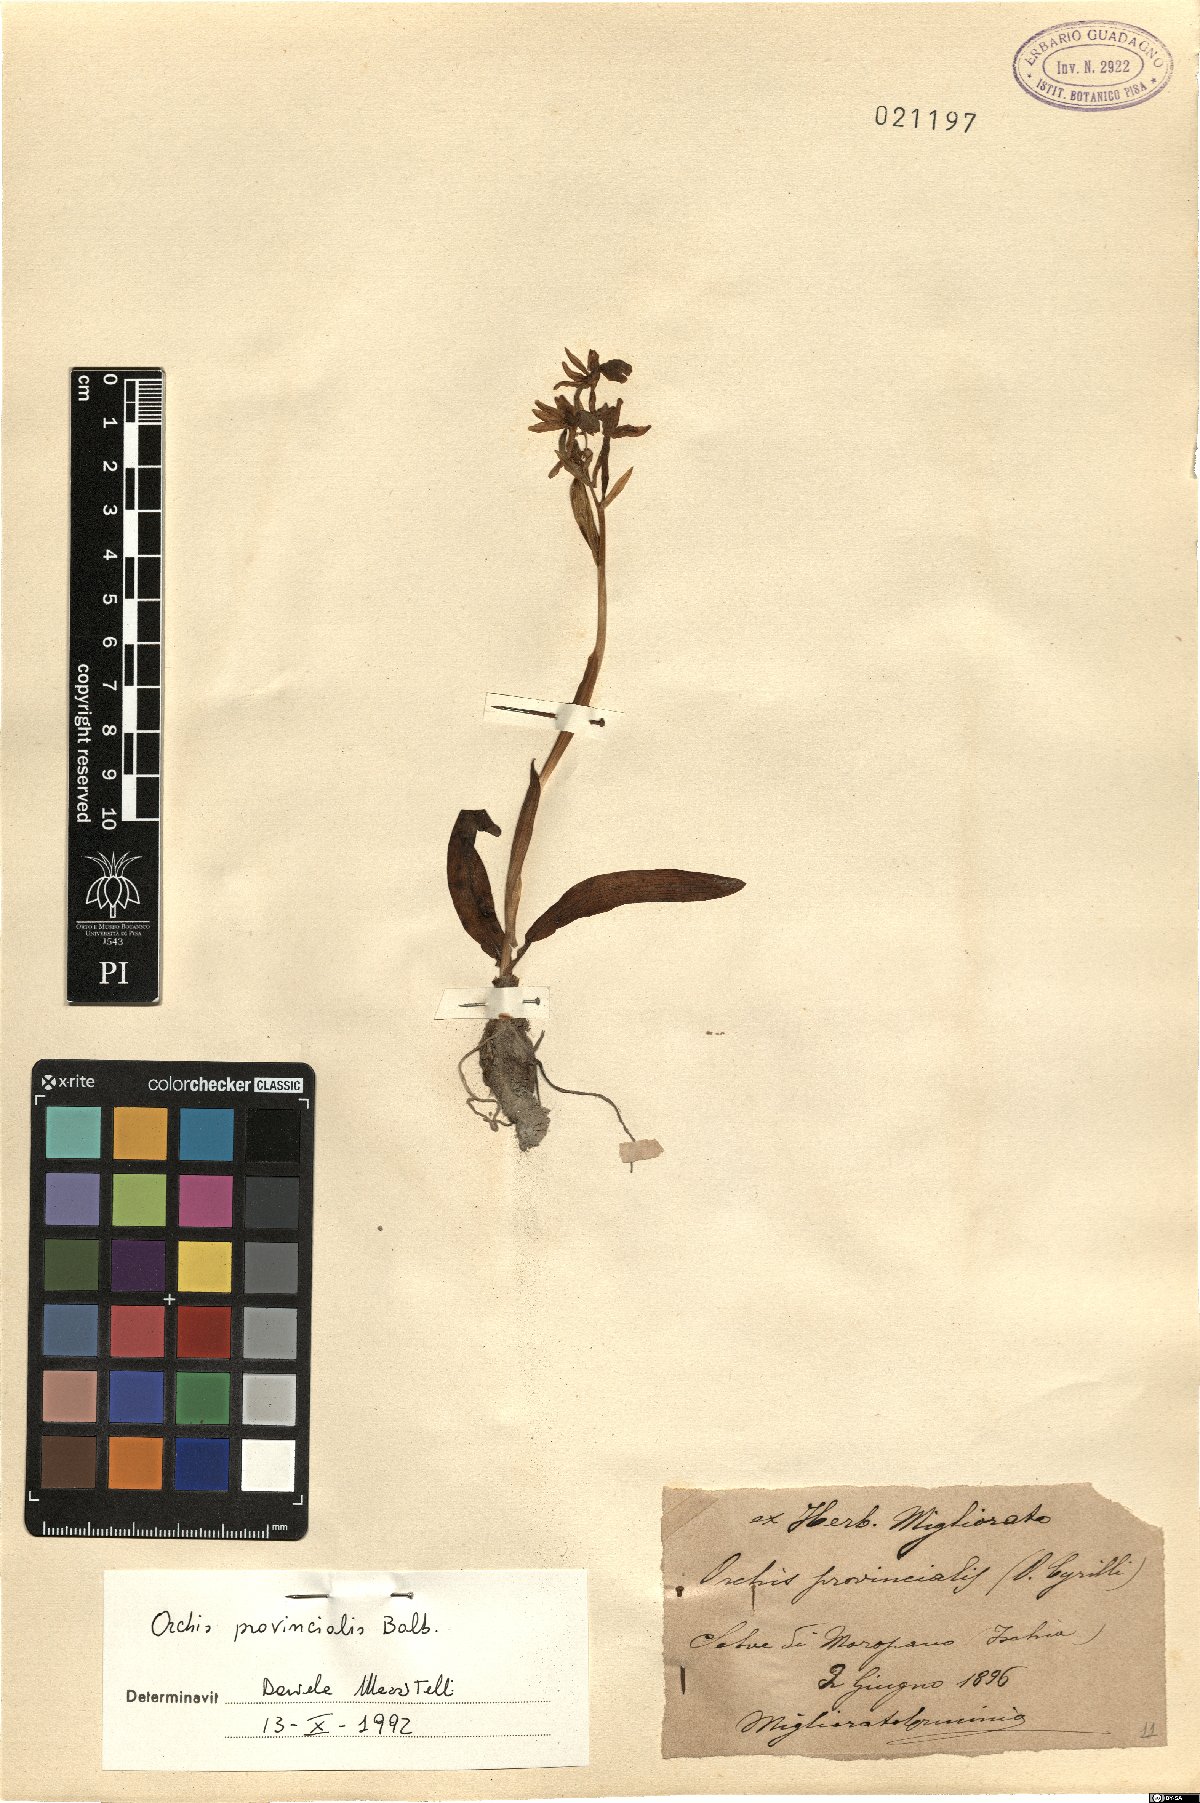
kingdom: Plantae
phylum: Tracheophyta
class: Liliopsida
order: Asparagales
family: Orchidaceae
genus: Orchis
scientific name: Orchis provincialis
